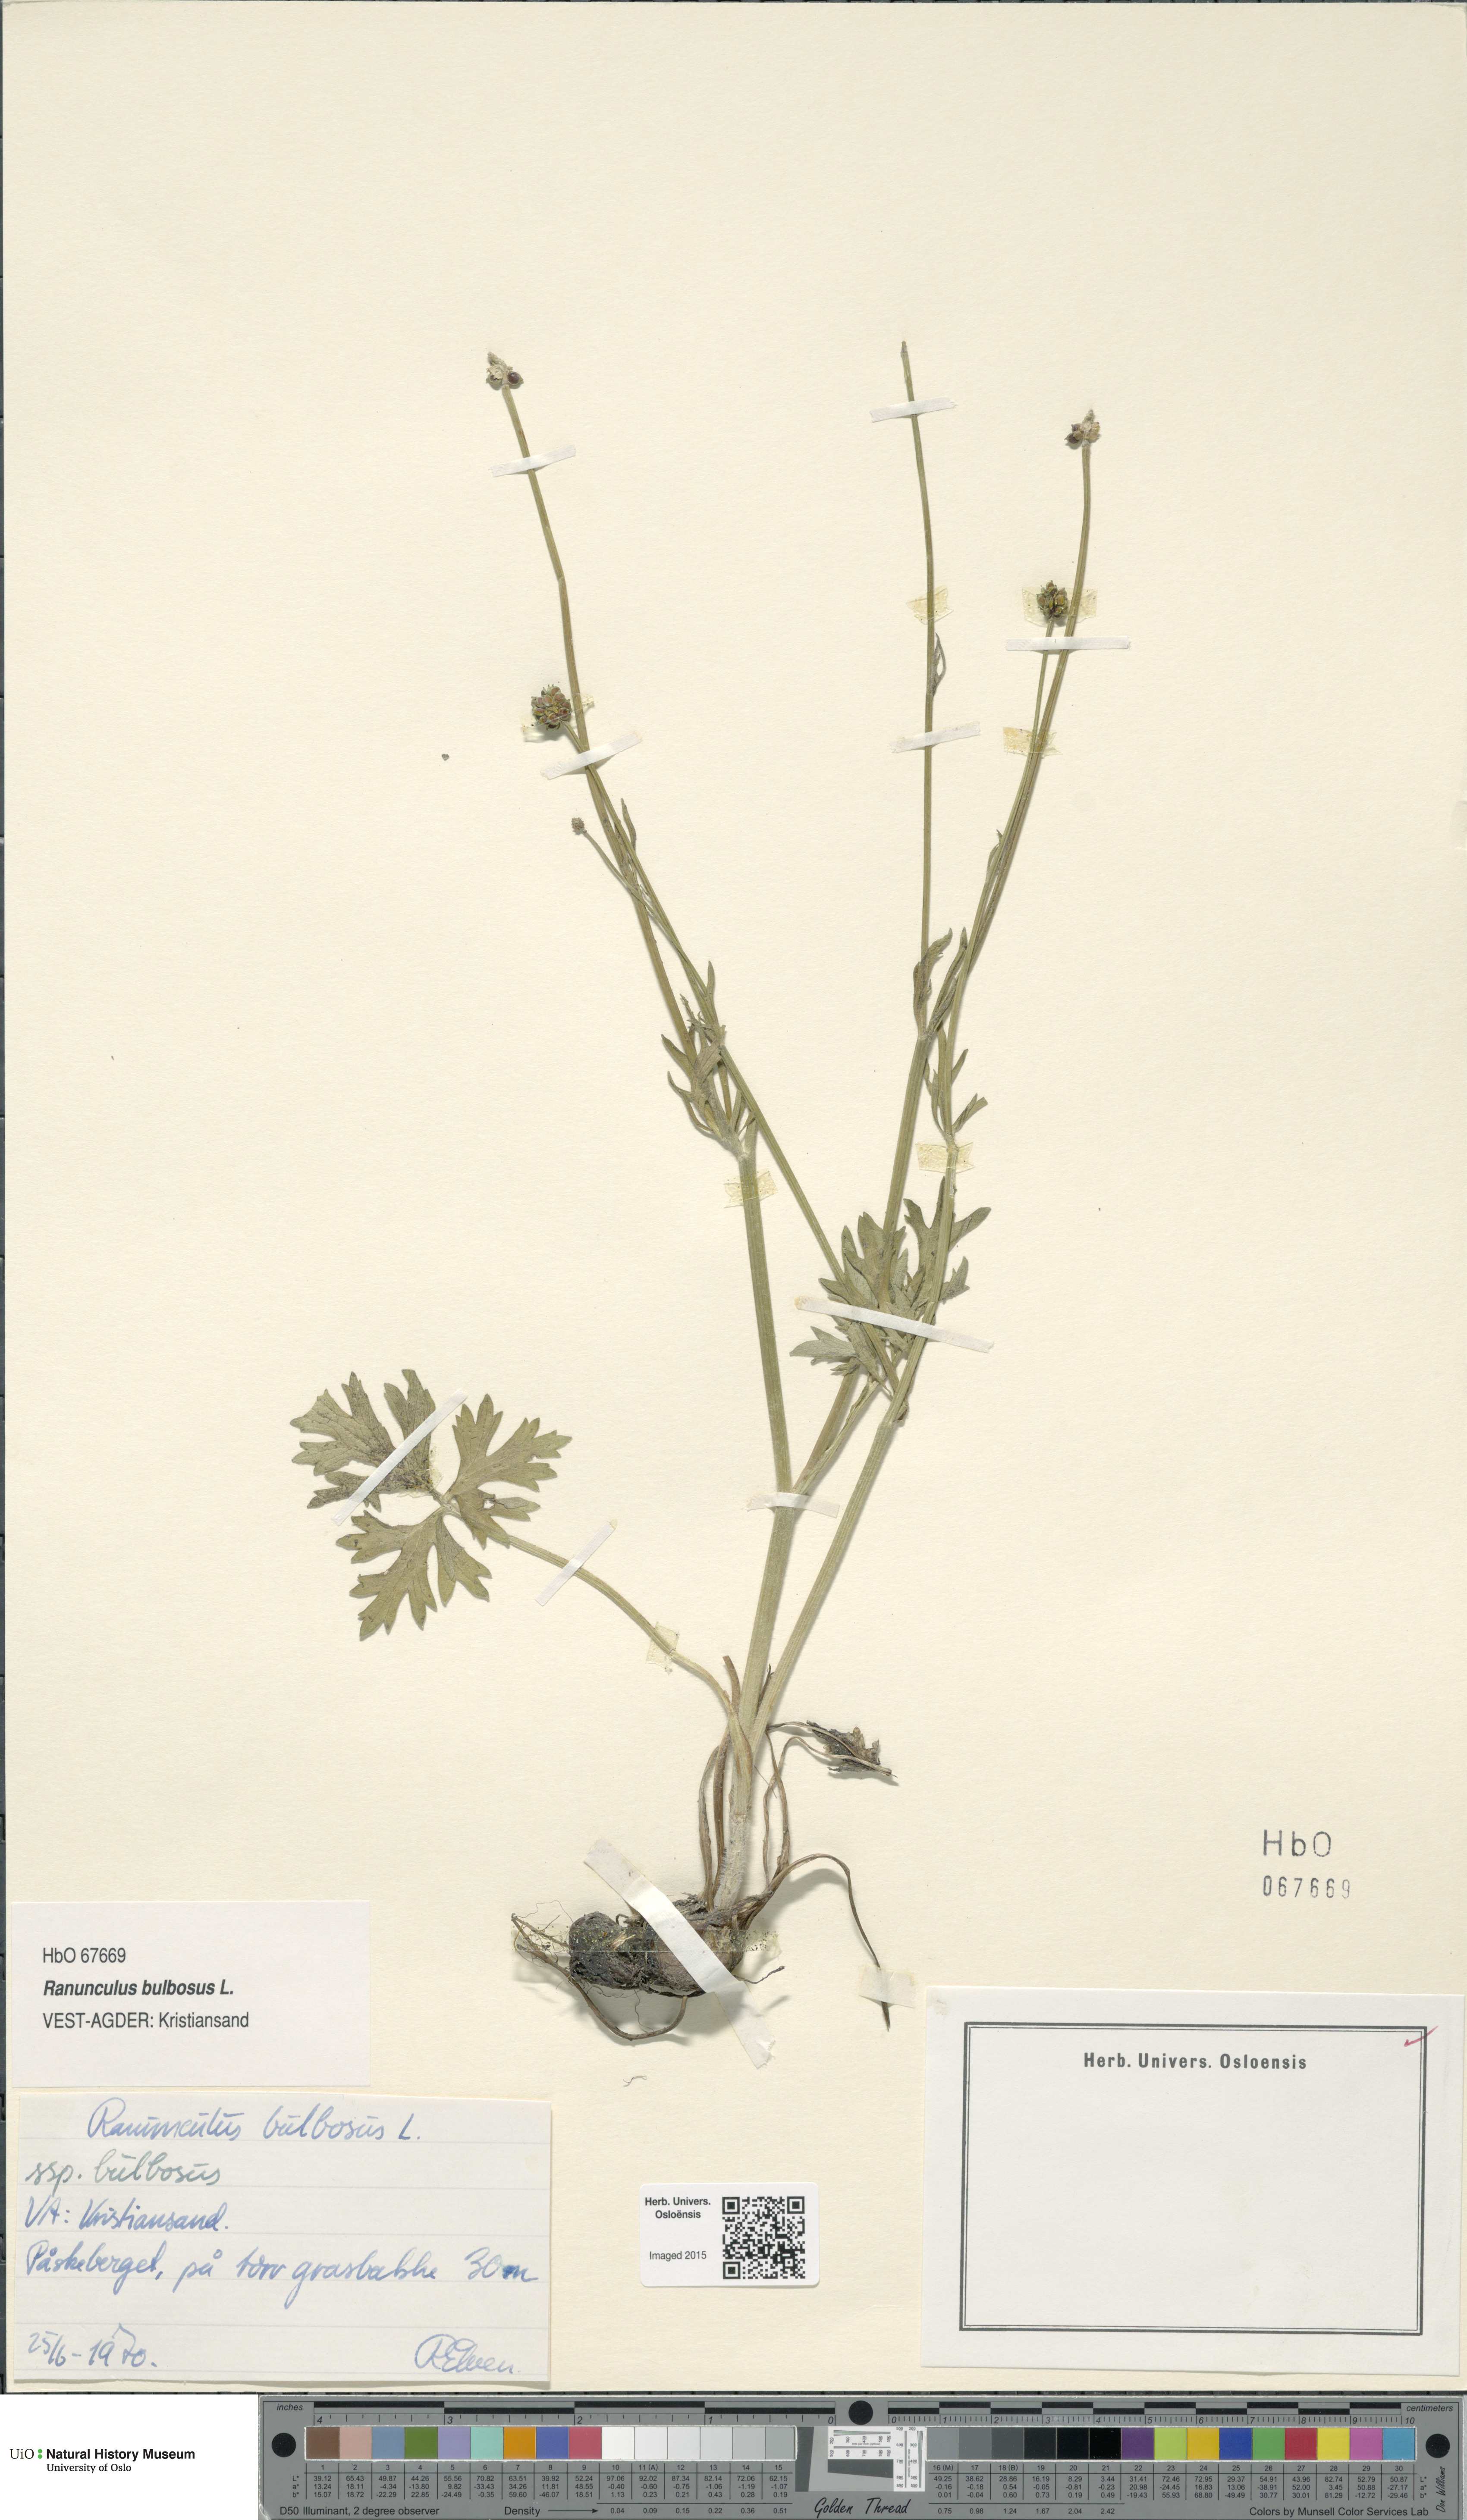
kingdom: Plantae
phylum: Tracheophyta
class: Magnoliopsida
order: Ranunculales
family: Ranunculaceae
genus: Ranunculus
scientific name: Ranunculus bulbosus
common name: Bulbous buttercup
